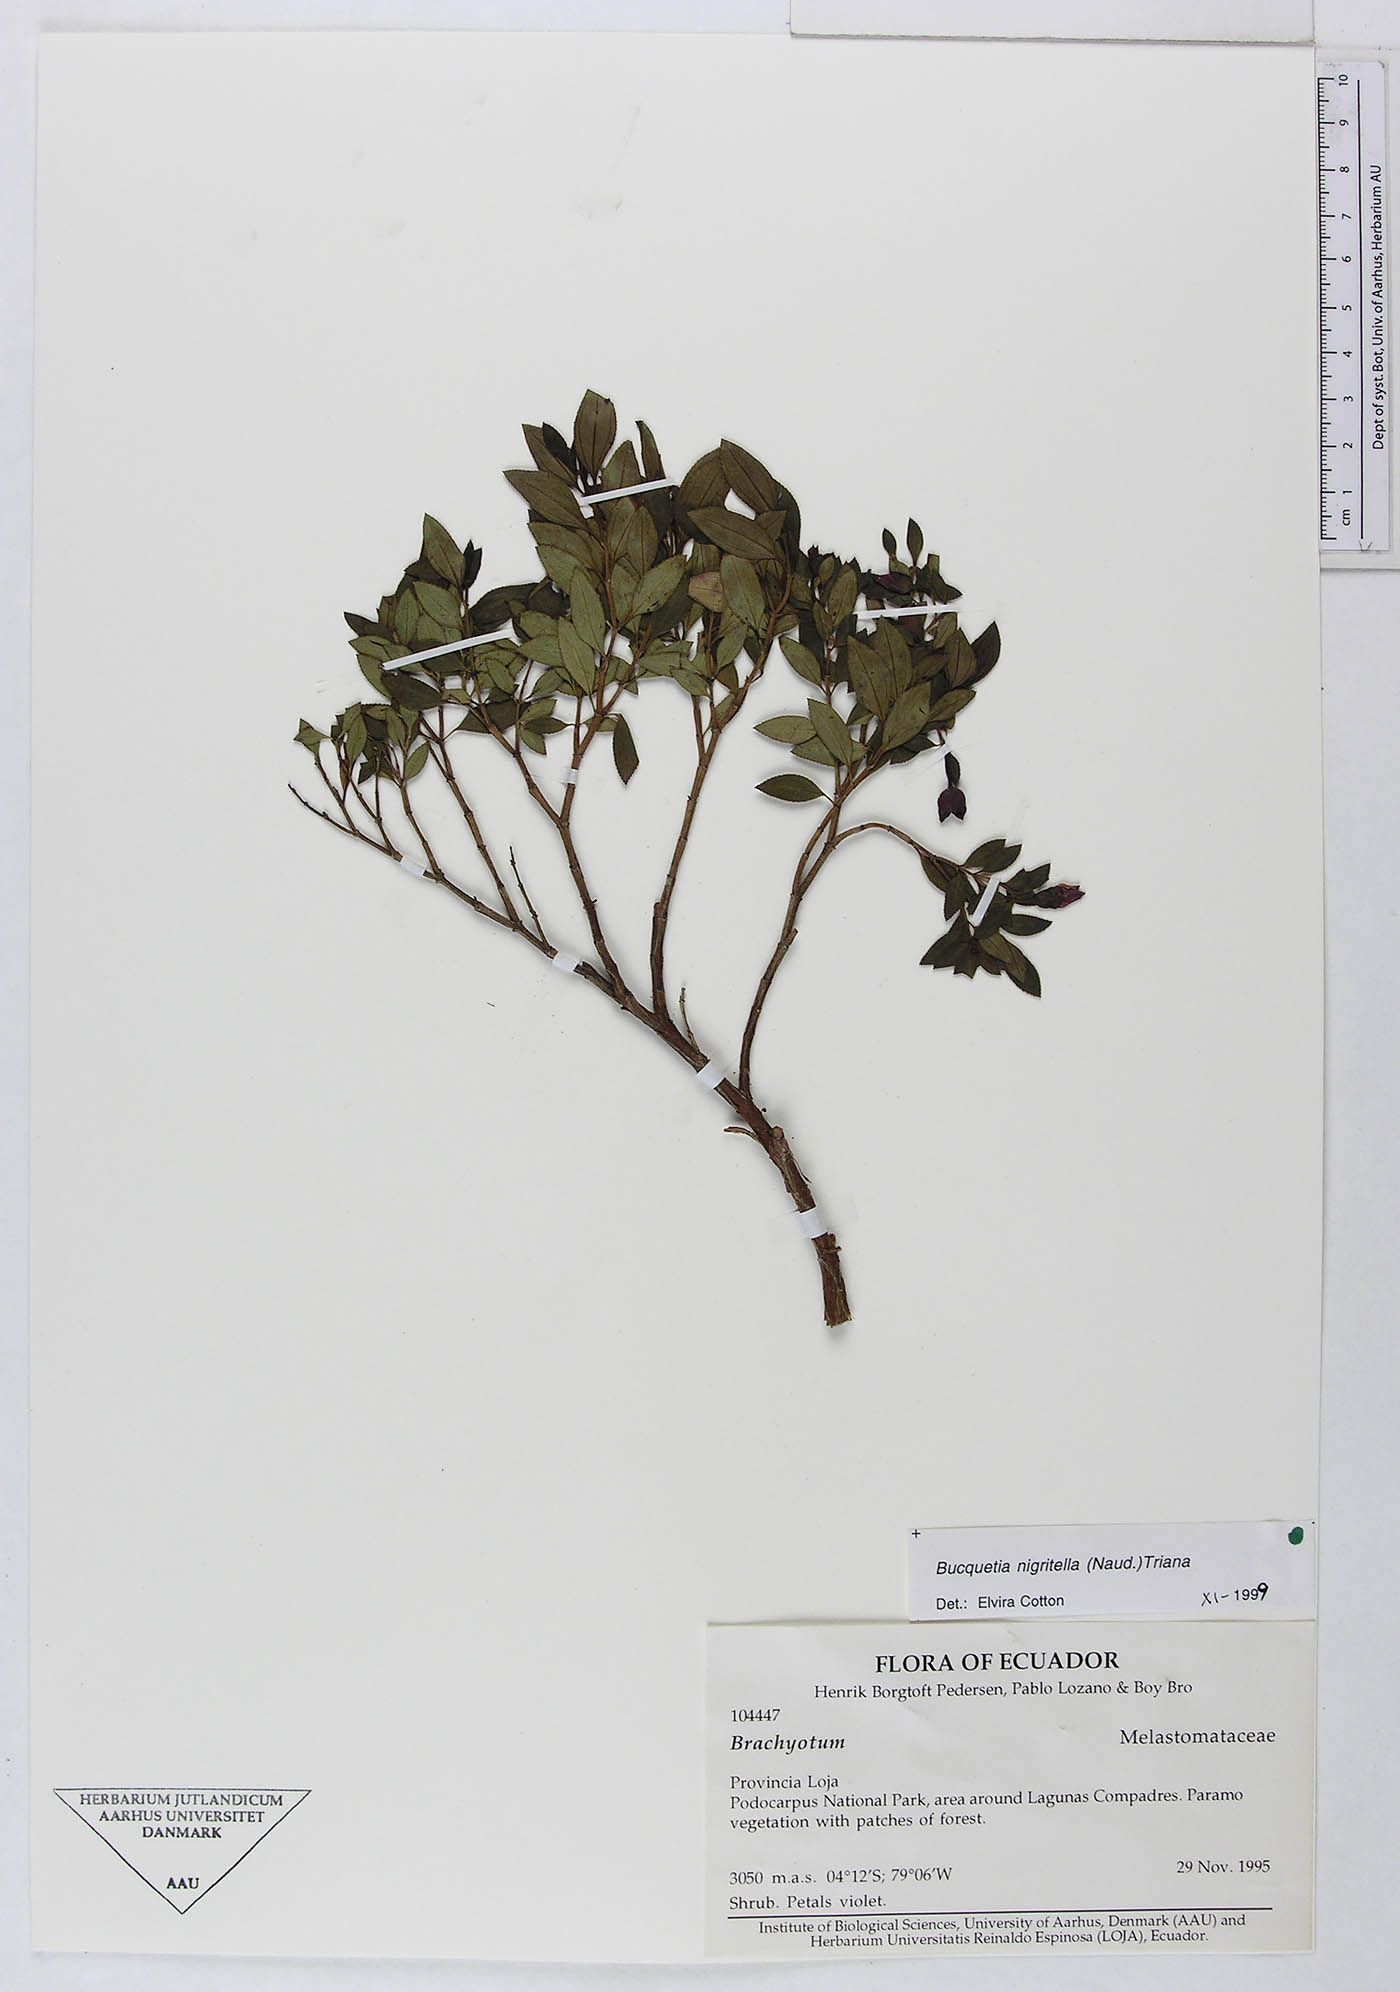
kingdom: Plantae
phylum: Tracheophyta
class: Magnoliopsida
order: Myrtales
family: Melastomataceae
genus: Bucquetia
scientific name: Bucquetia nigritella
